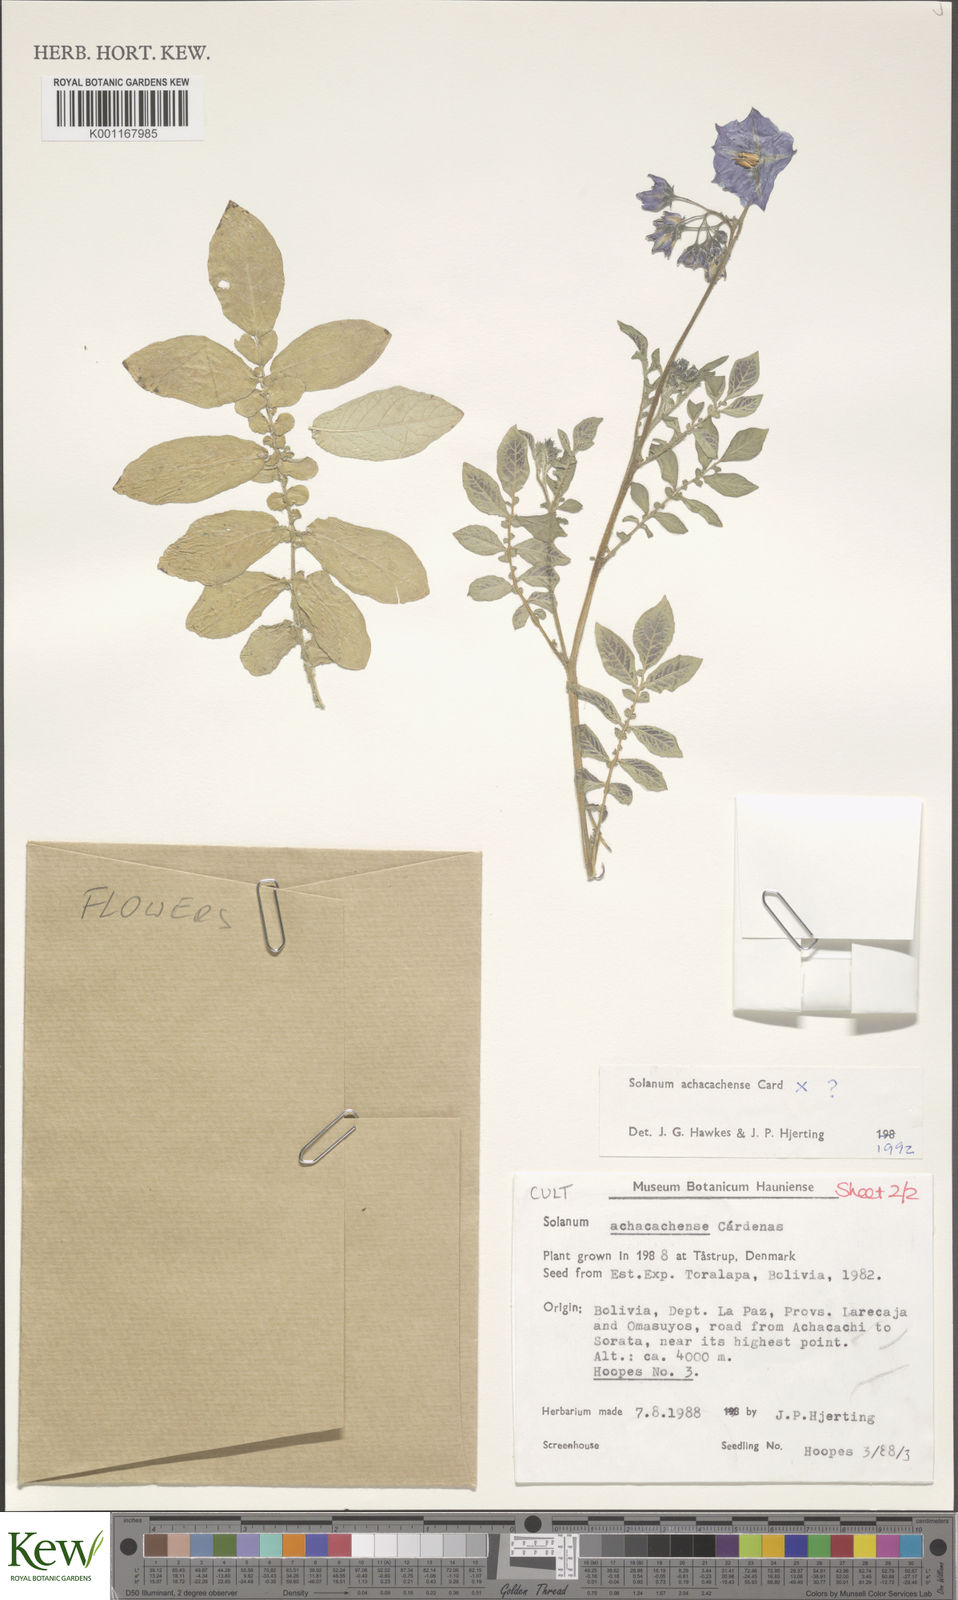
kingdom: Plantae
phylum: Tracheophyta
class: Magnoliopsida
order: Solanales
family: Solanaceae
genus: Solanum
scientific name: Solanum
